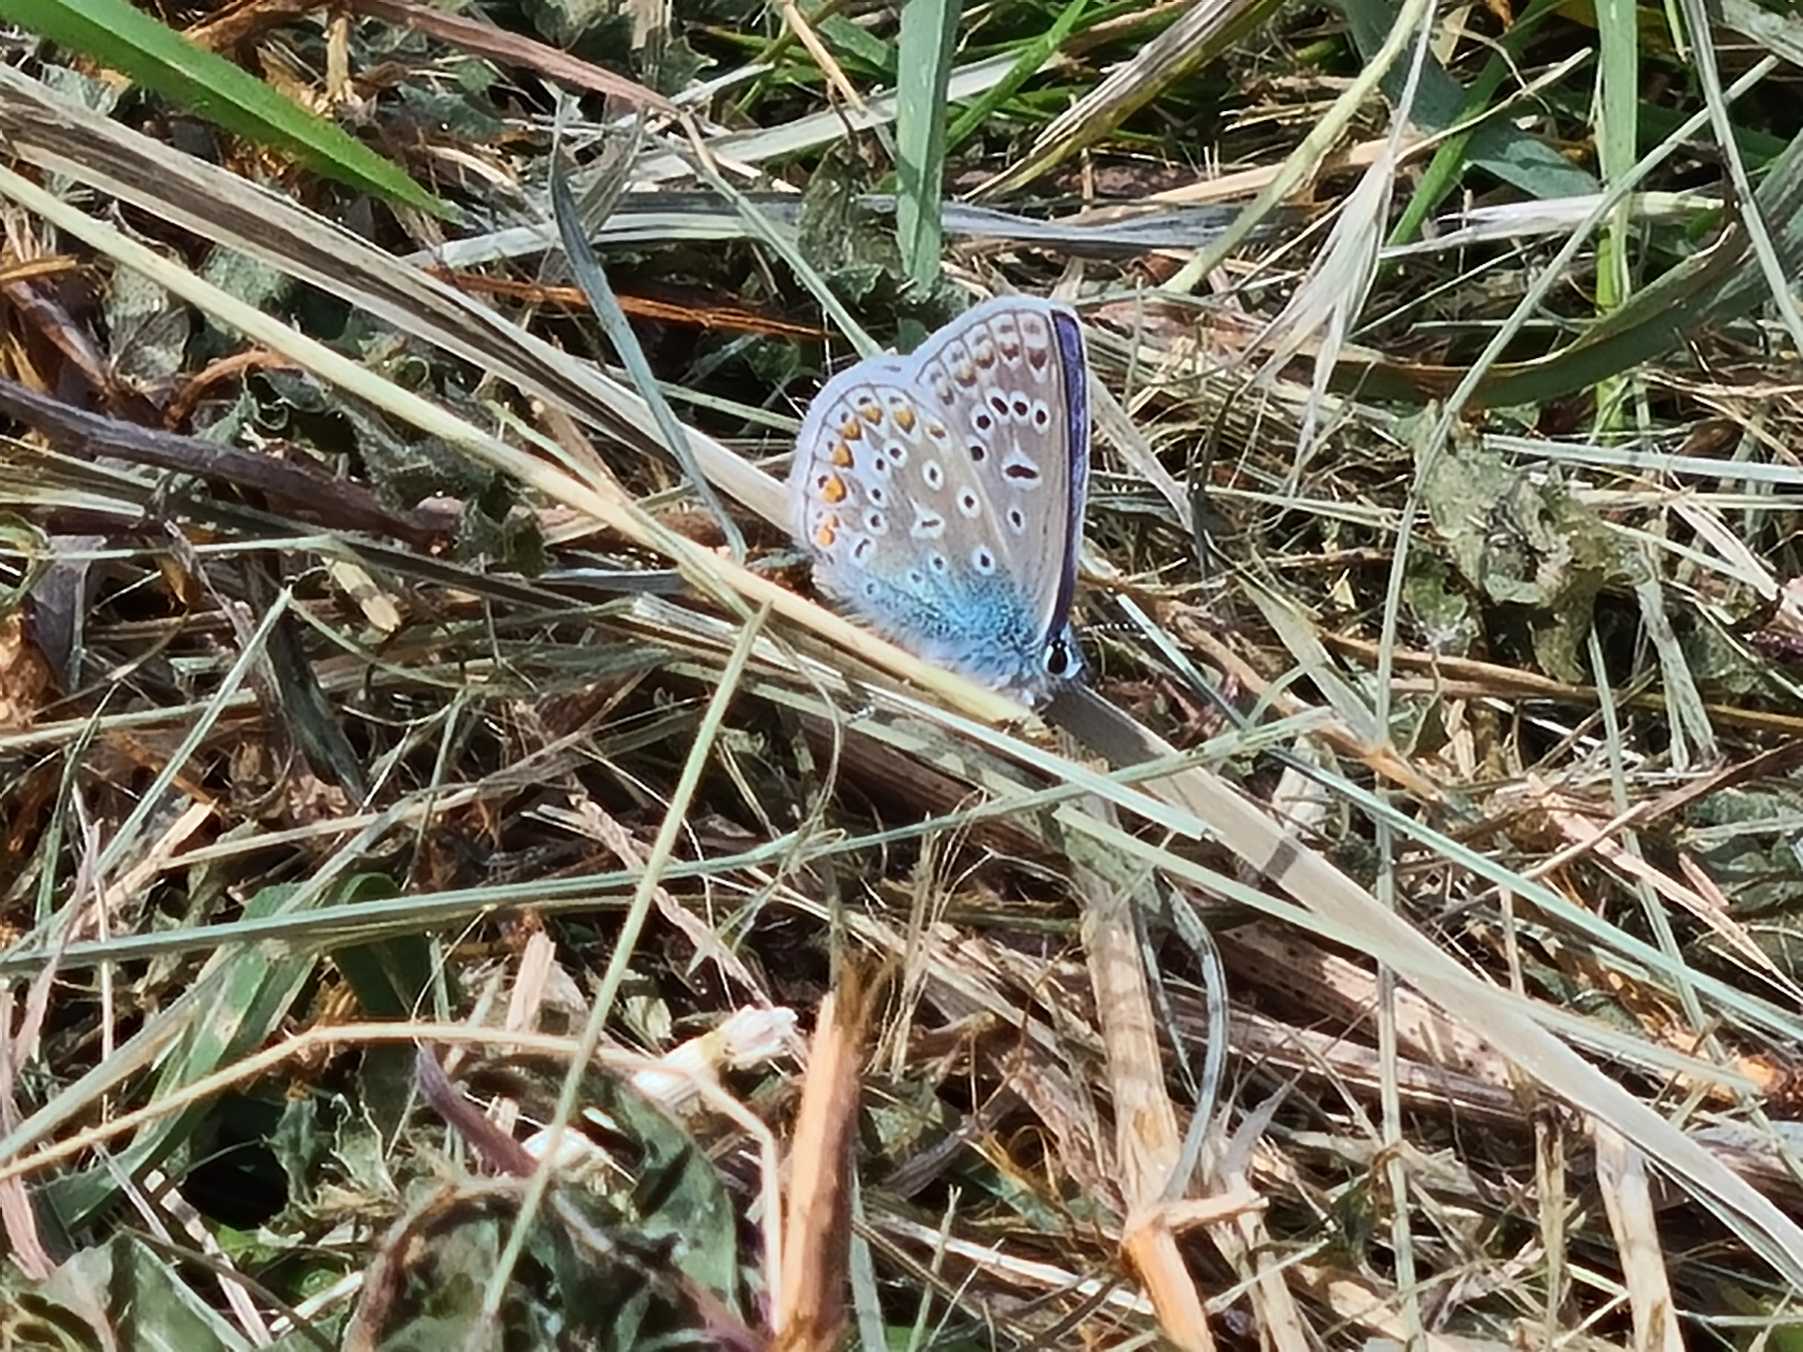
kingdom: Animalia
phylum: Arthropoda
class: Insecta
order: Lepidoptera
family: Lycaenidae
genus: Polyommatus
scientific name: Polyommatus icarus
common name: Almindelig blåfugl
